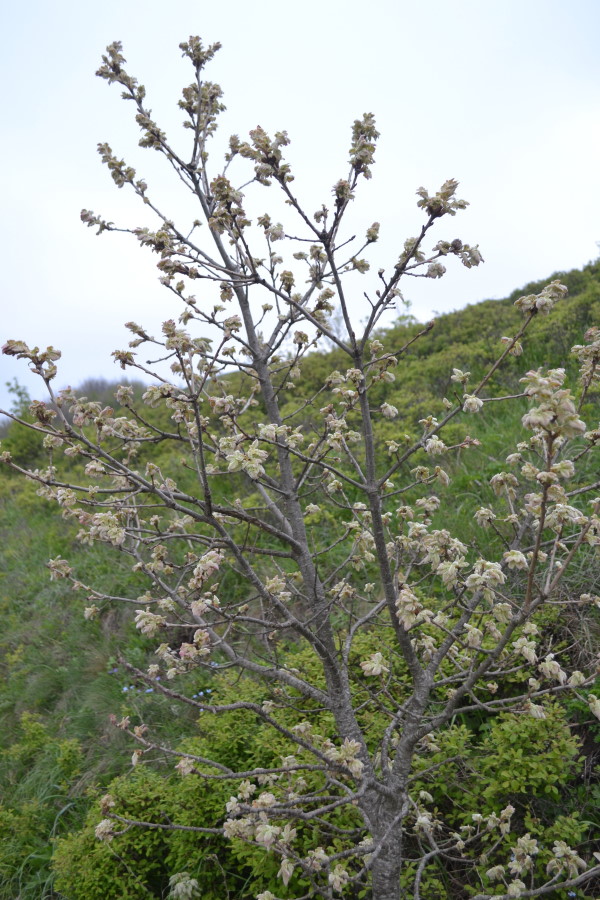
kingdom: Plantae
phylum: Tracheophyta
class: Magnoliopsida
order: Fagales
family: Fagaceae
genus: Quercus
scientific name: Quercus petraea
